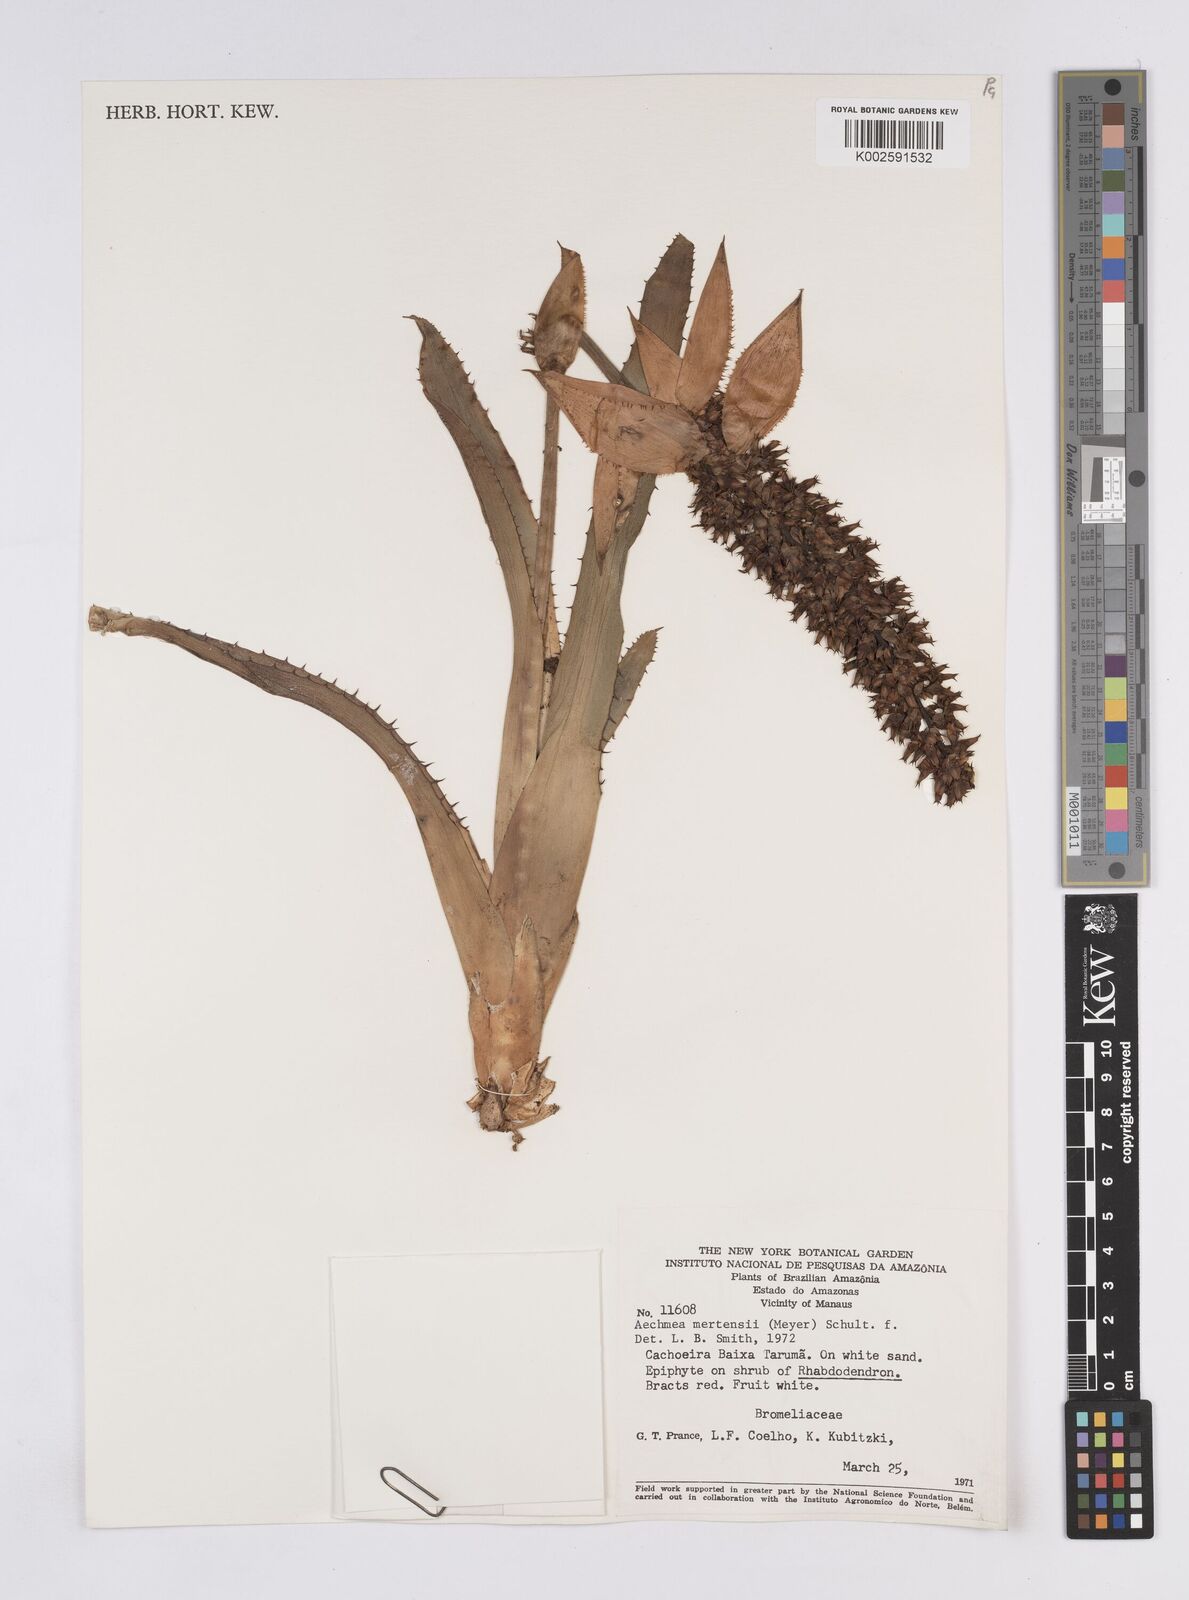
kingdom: Plantae
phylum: Tracheophyta
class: Liliopsida
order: Poales
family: Bromeliaceae
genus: Aechmea
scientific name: Aechmea mertensii
